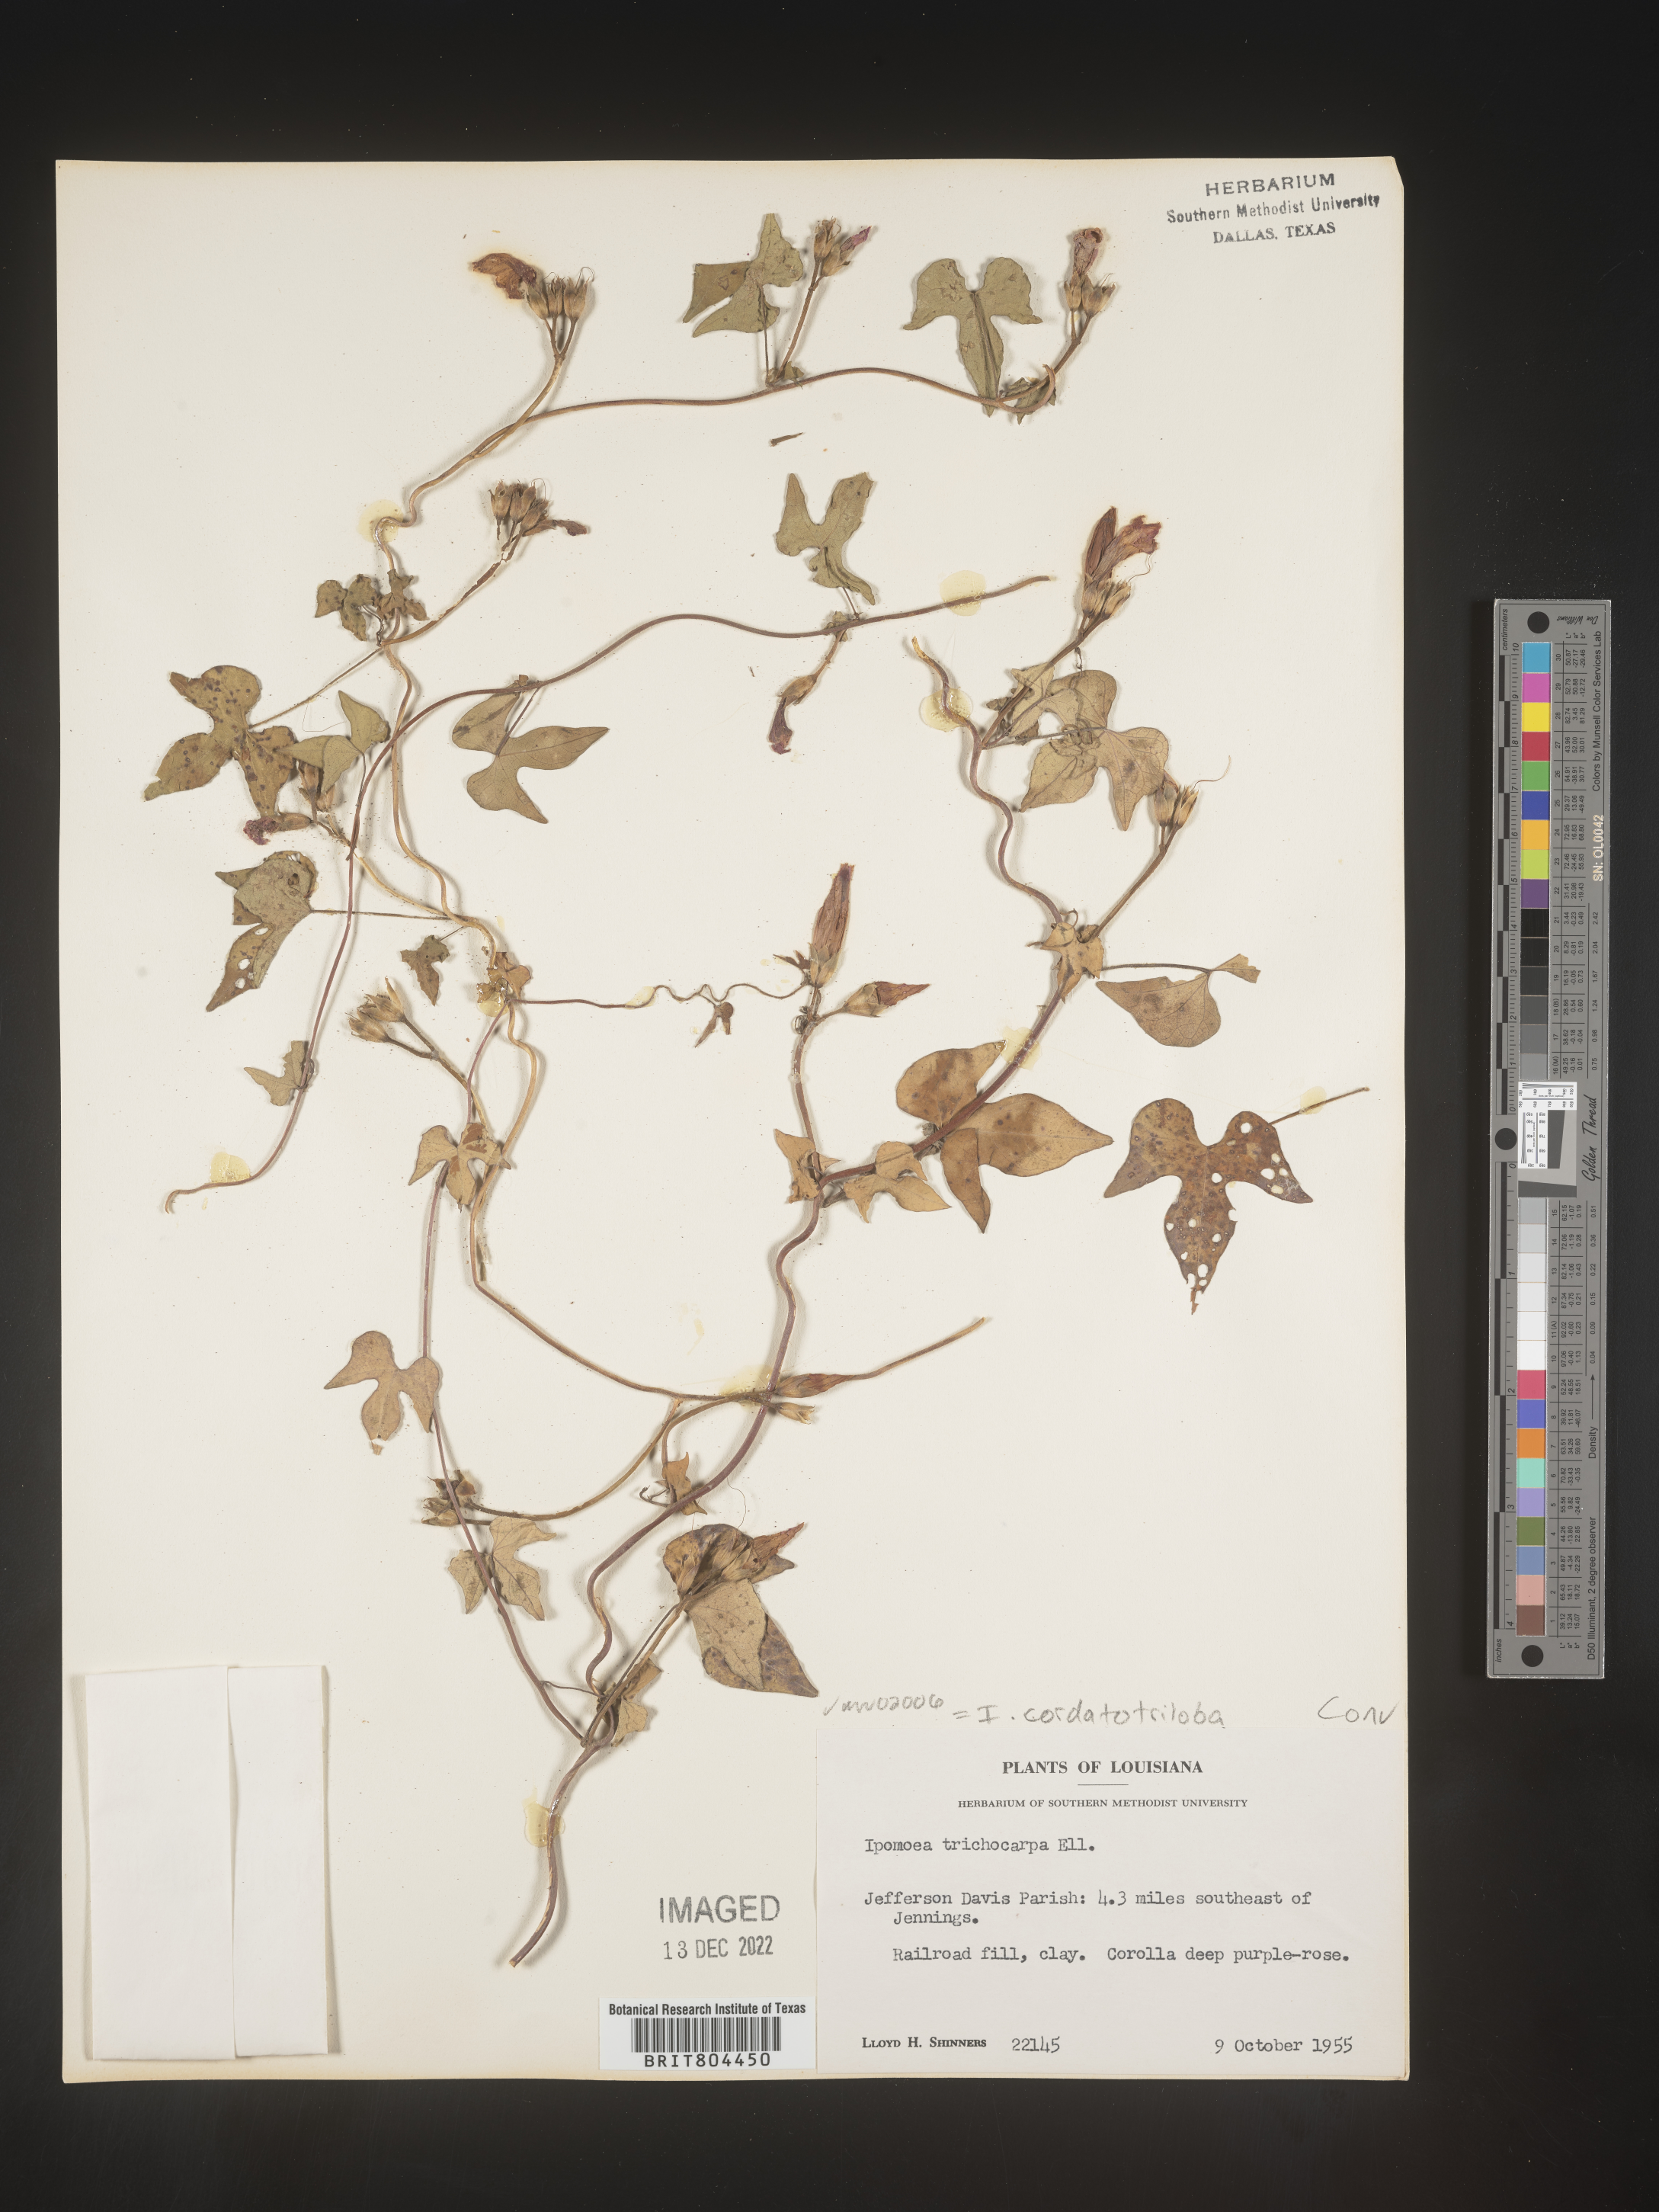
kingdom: Plantae
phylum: Tracheophyta
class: Magnoliopsida
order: Solanales
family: Convolvulaceae
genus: Ipomoea
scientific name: Ipomoea cordatotriloba
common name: Cotton morning glory
